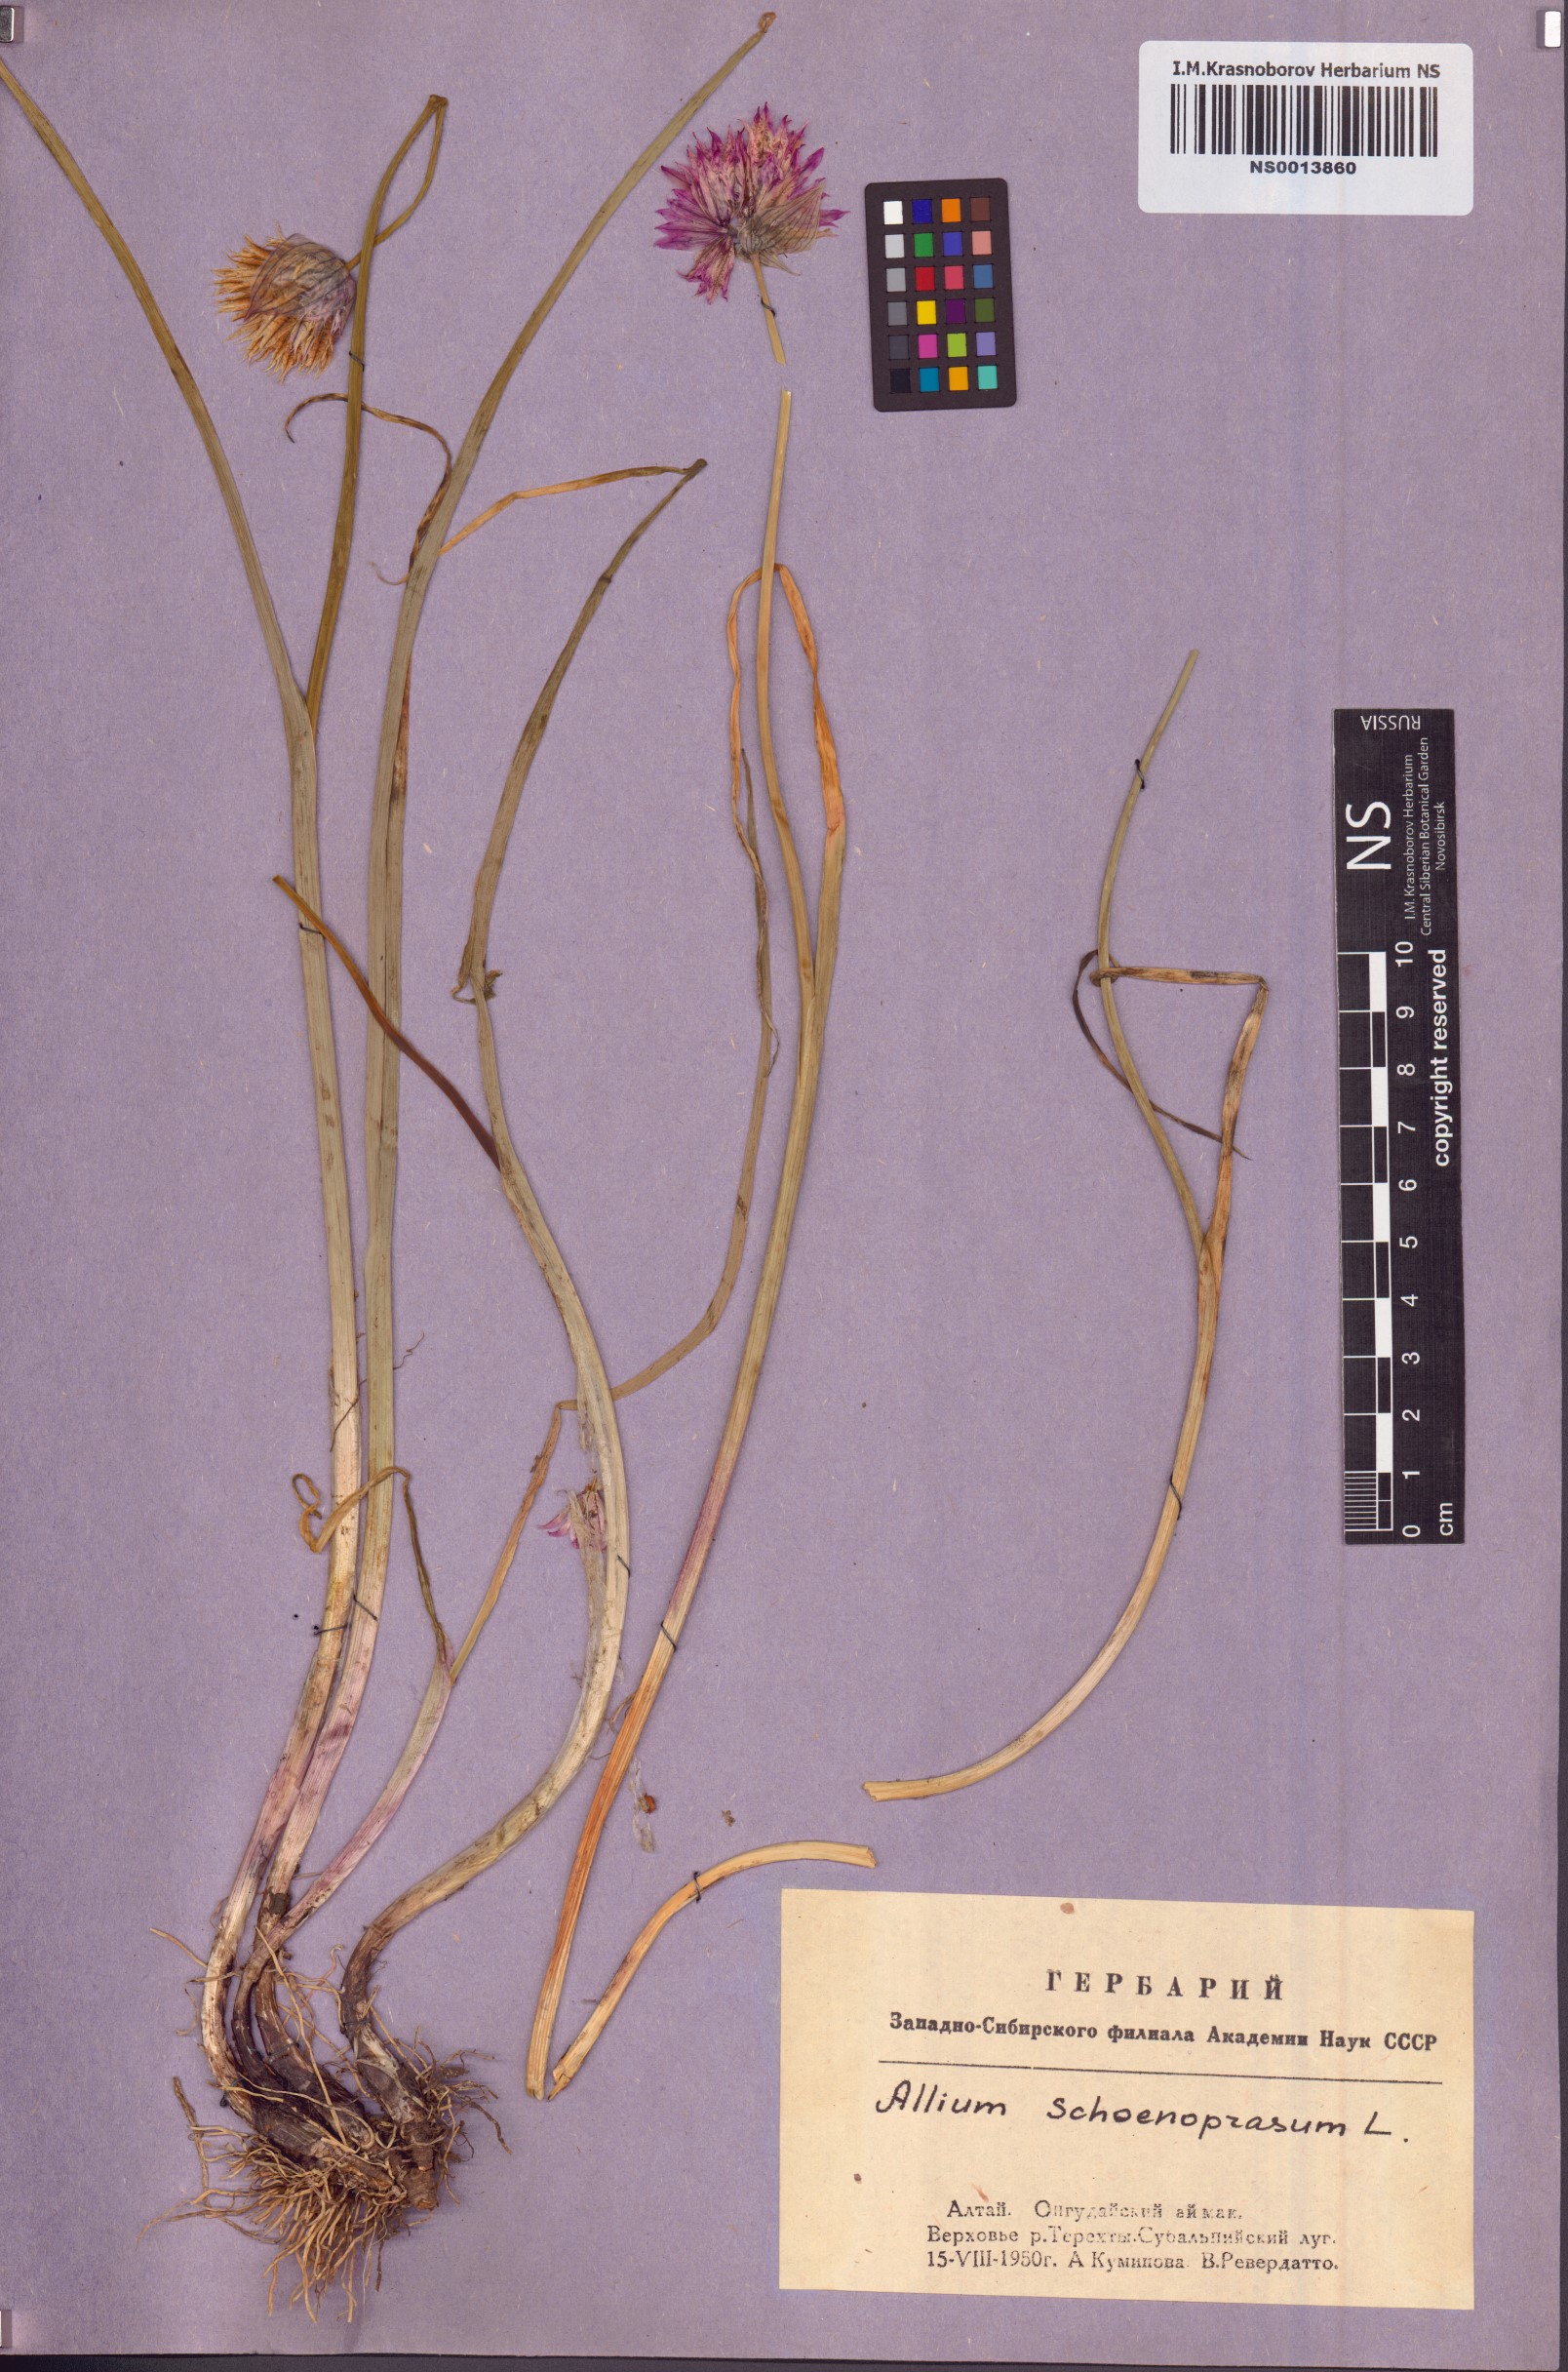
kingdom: Plantae
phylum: Tracheophyta
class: Liliopsida
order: Asparagales
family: Amaryllidaceae
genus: Allium
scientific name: Allium schoenoprasum
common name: Chives
